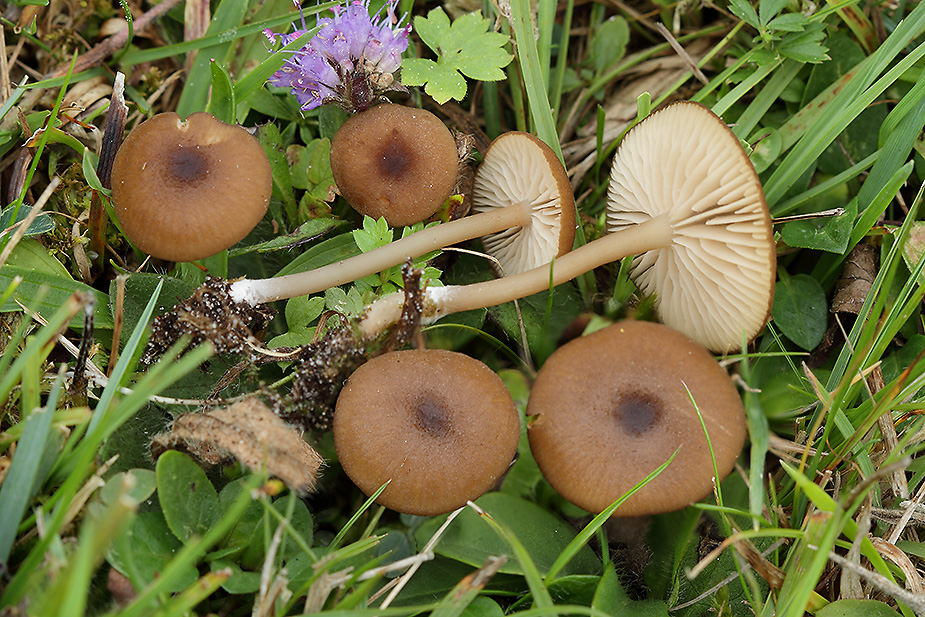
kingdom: Fungi
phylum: Basidiomycota
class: Agaricomycetes
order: Agaricales
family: Entolomataceae
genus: Entoloma
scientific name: Entoloma longistriatum
